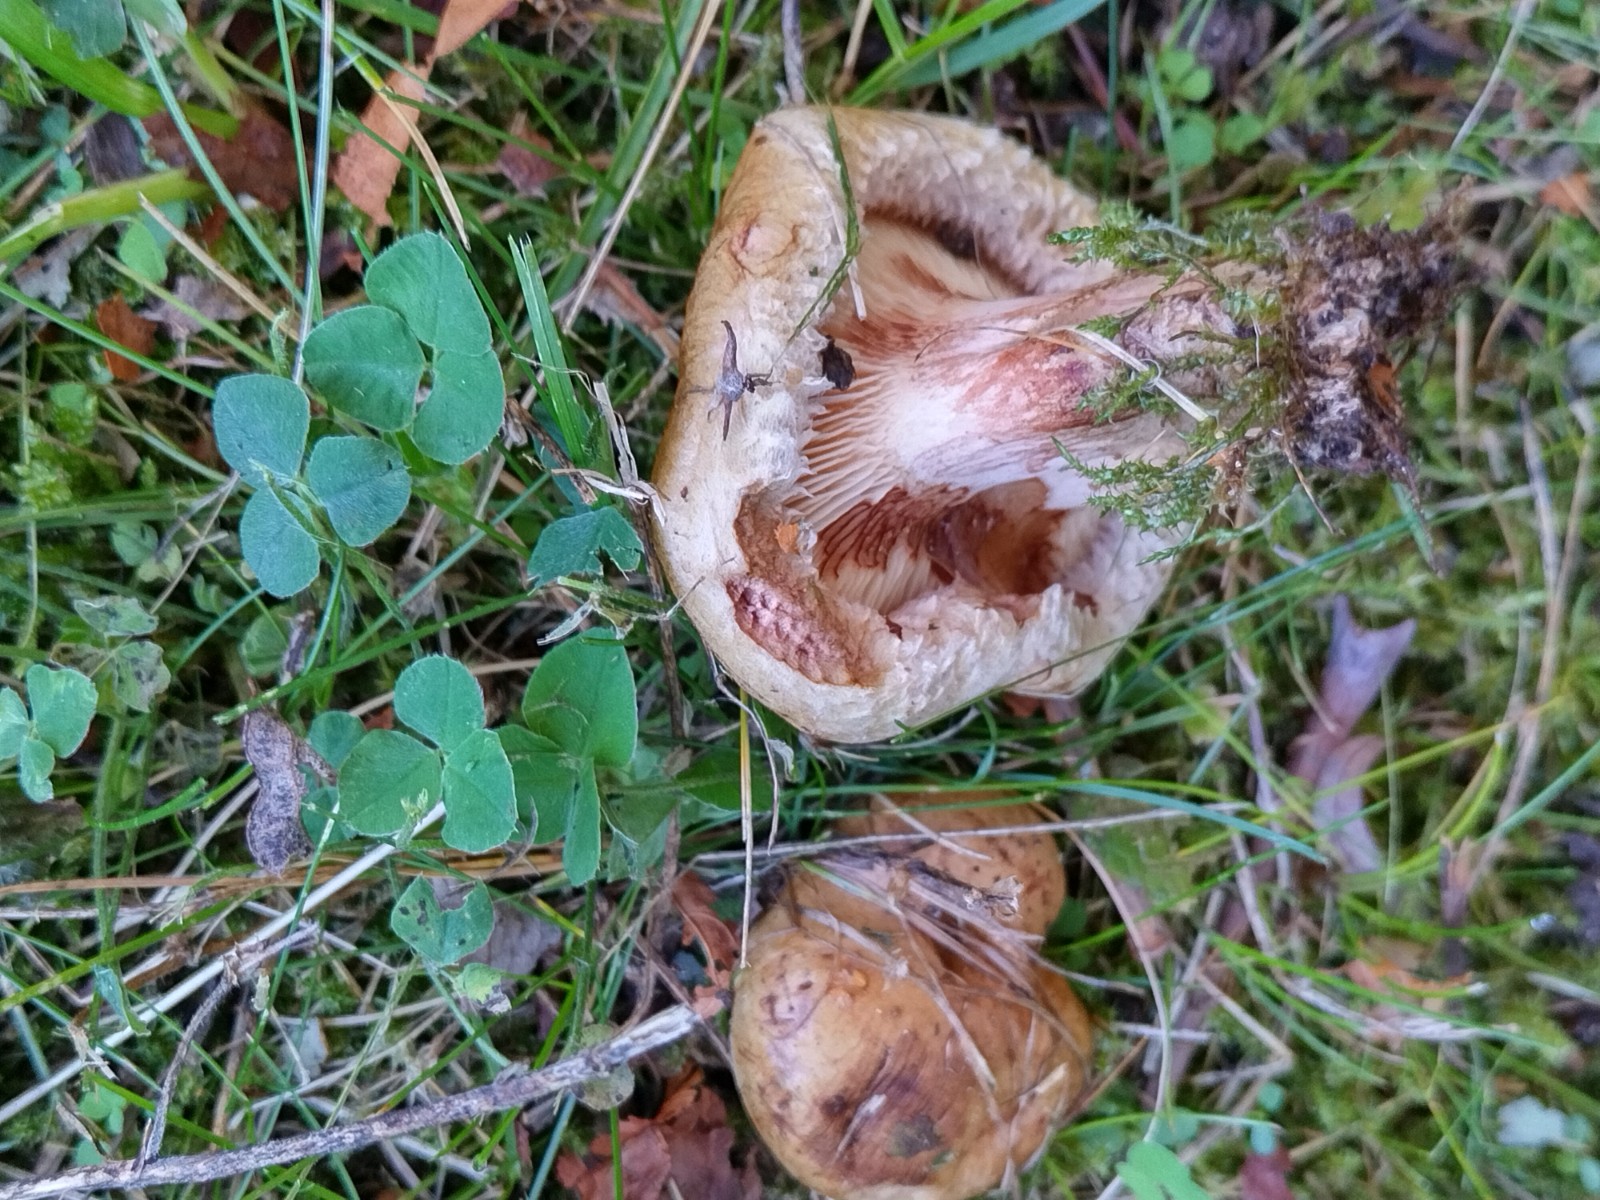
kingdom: Fungi
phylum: Basidiomycota
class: Agaricomycetes
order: Boletales
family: Paxillaceae
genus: Paxillus
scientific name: Paxillus obscurisporus
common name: mahognisporet netbladhat
